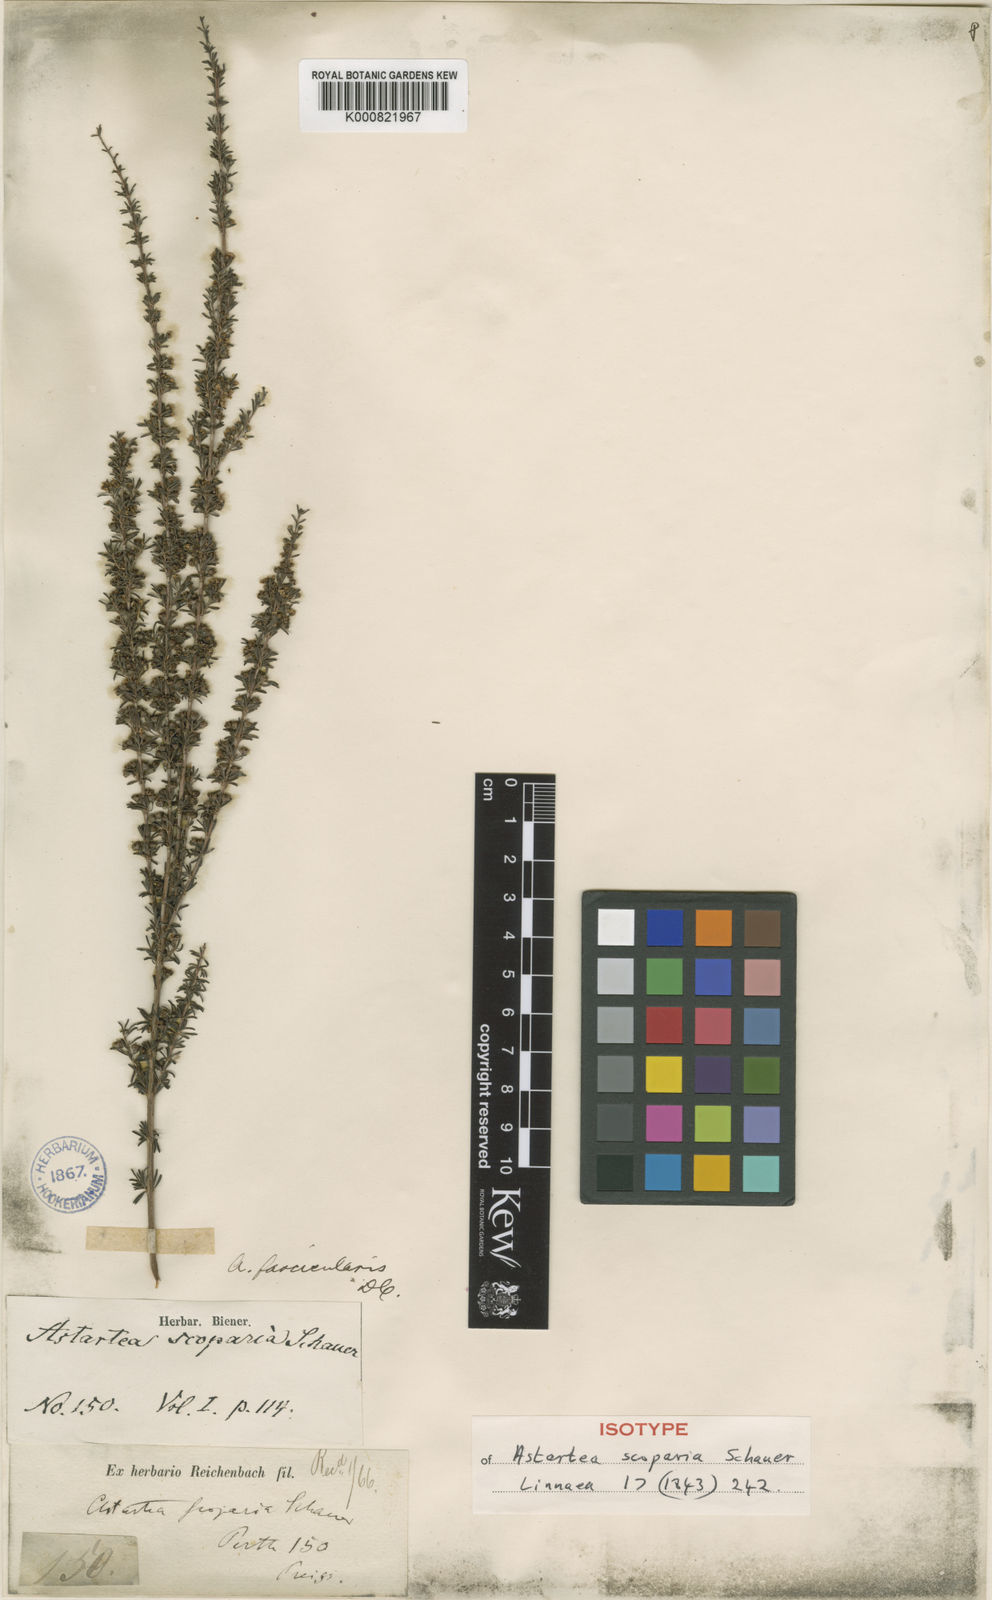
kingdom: Plantae
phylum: Tracheophyta
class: Magnoliopsida
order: Myrtales
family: Myrtaceae
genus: Astartea
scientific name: Astartea fascicularis
